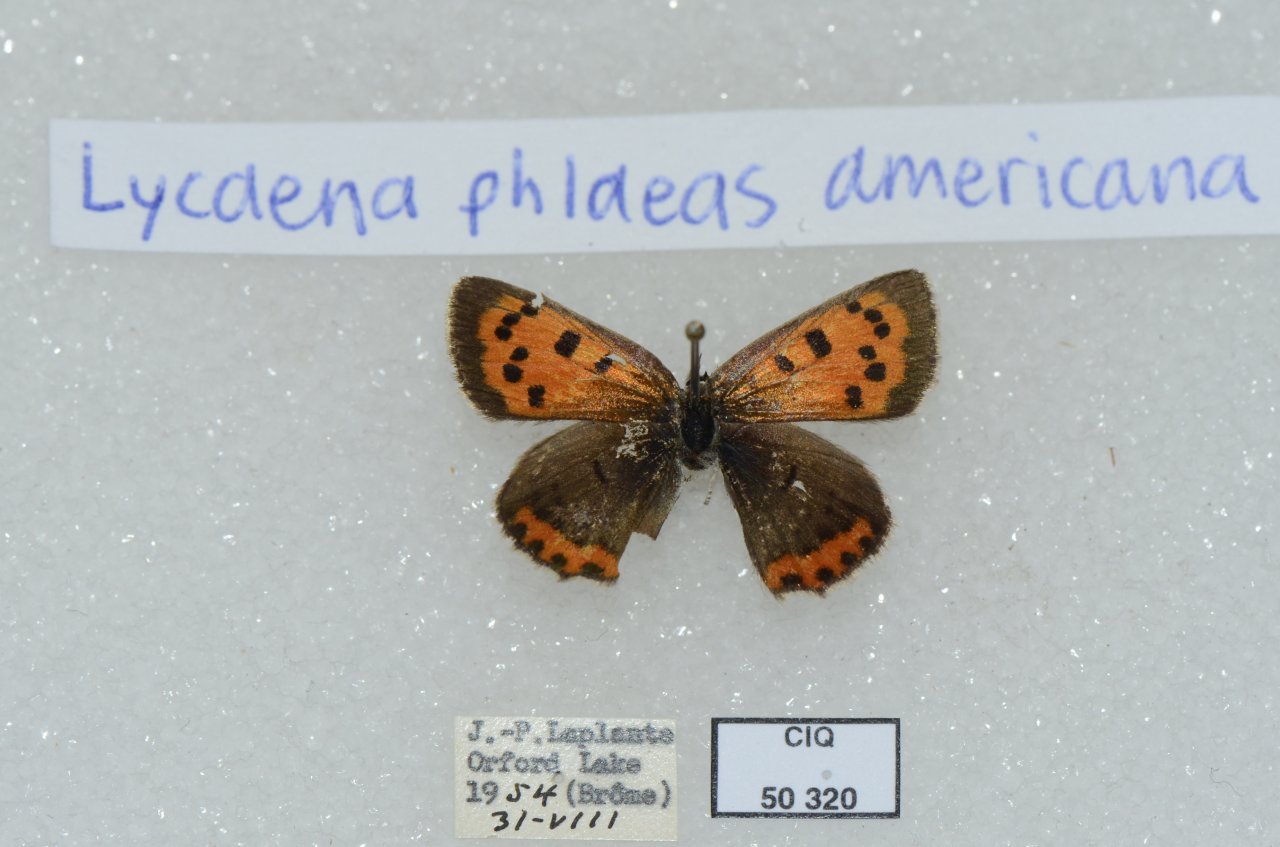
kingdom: Animalia
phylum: Arthropoda
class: Insecta
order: Lepidoptera
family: Lycaenidae
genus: Lycaena
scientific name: Lycaena phlaeas
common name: American Copper
